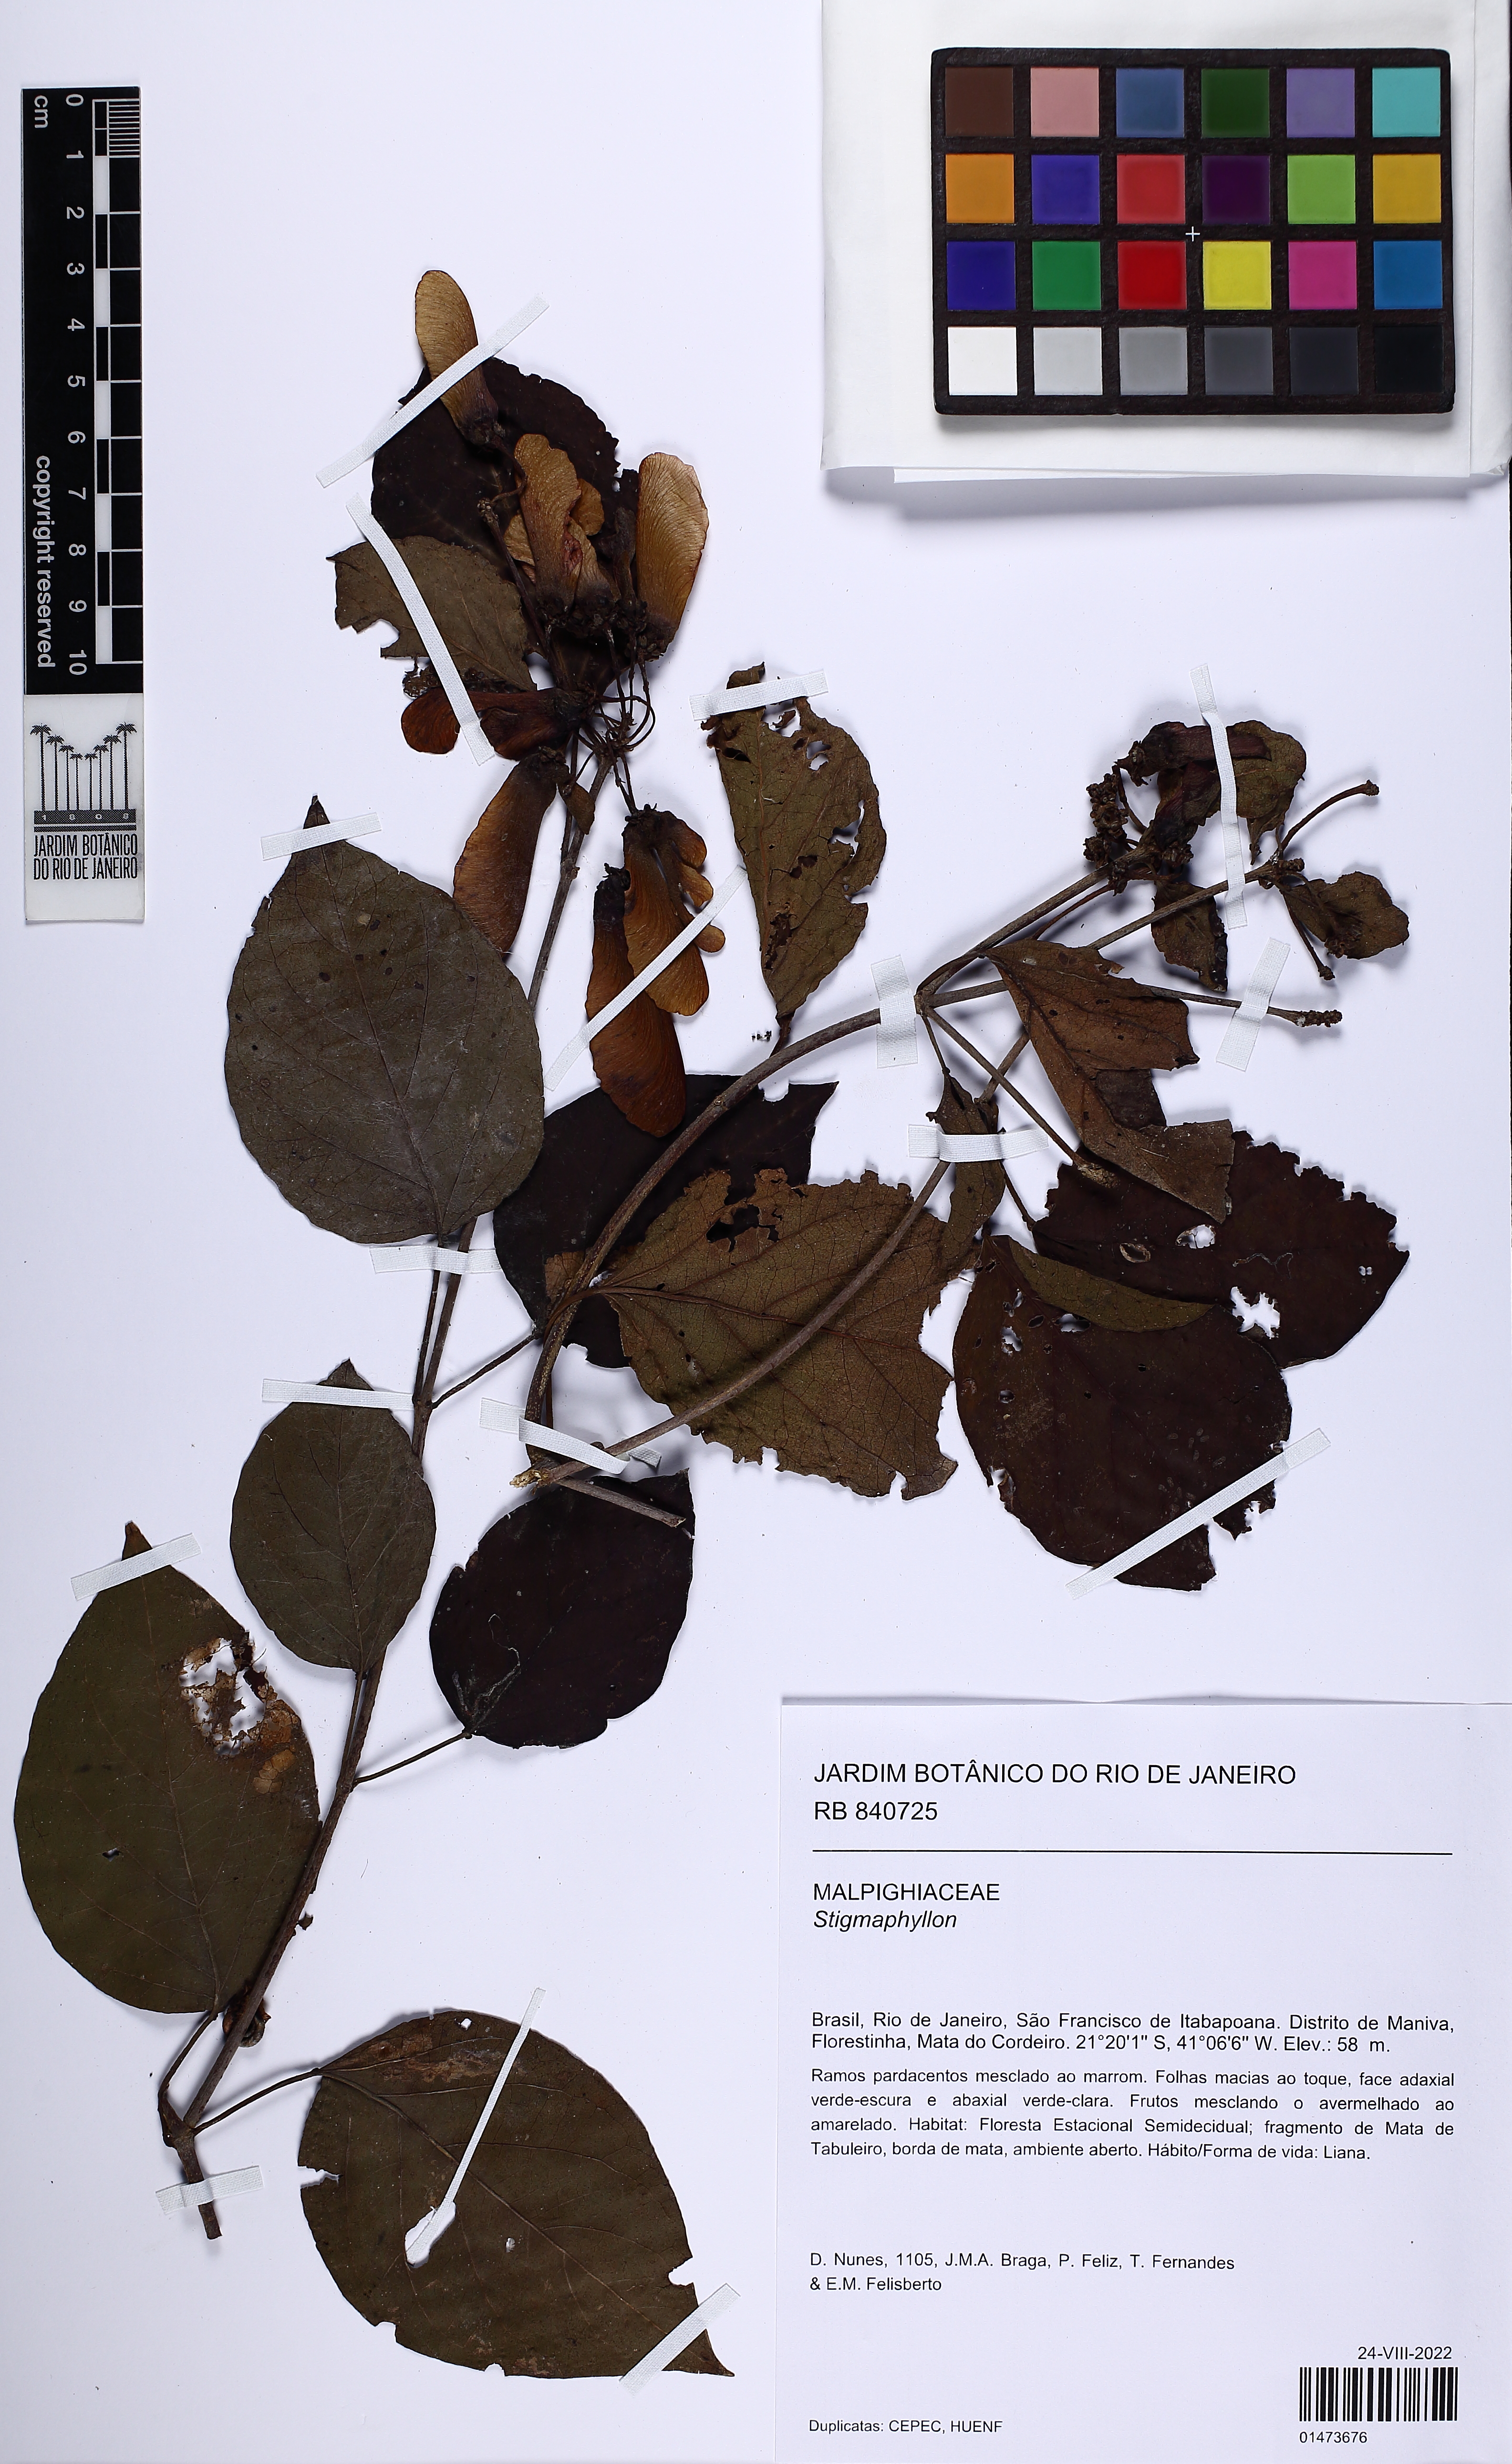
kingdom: Plantae
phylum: Tracheophyta
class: Magnoliopsida
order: Malpighiales
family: Malpighiaceae
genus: Stigmaphyllon
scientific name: Stigmaphyllon
